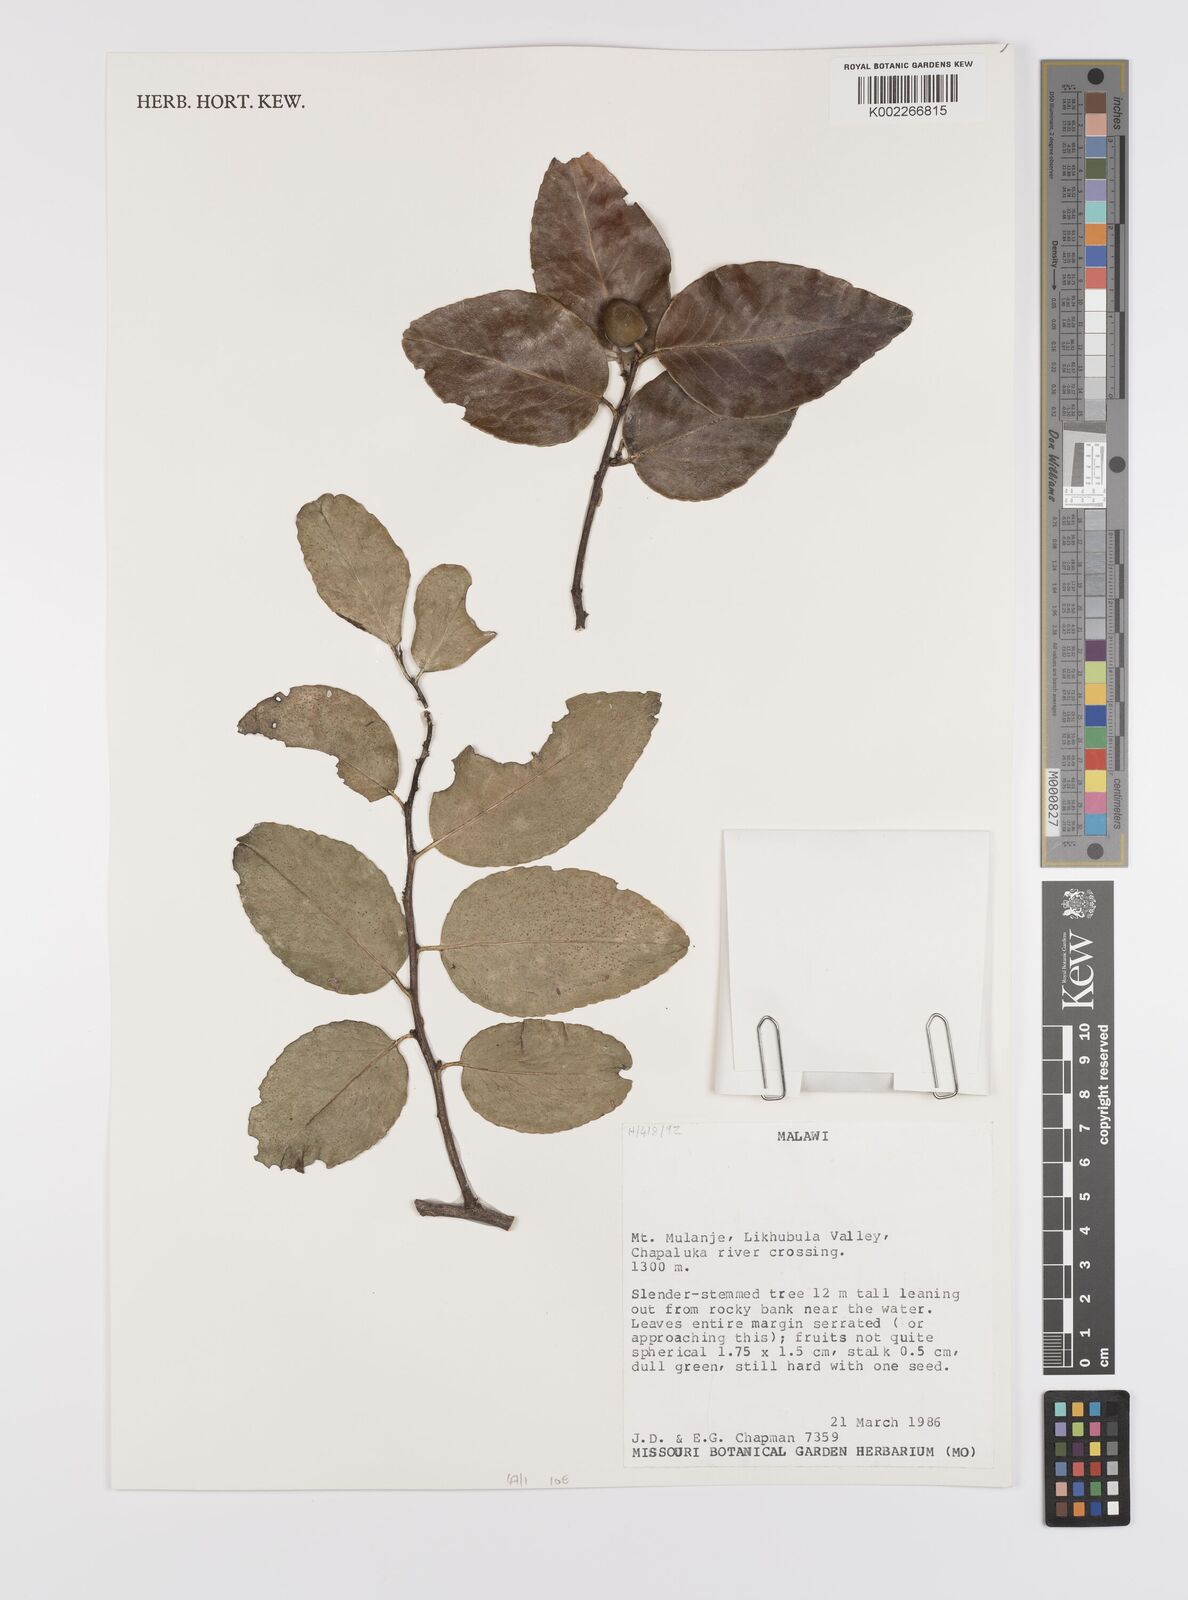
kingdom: Plantae
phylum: Tracheophyta
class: Magnoliopsida
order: Celastrales
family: Celastraceae
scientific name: Celastraceae
